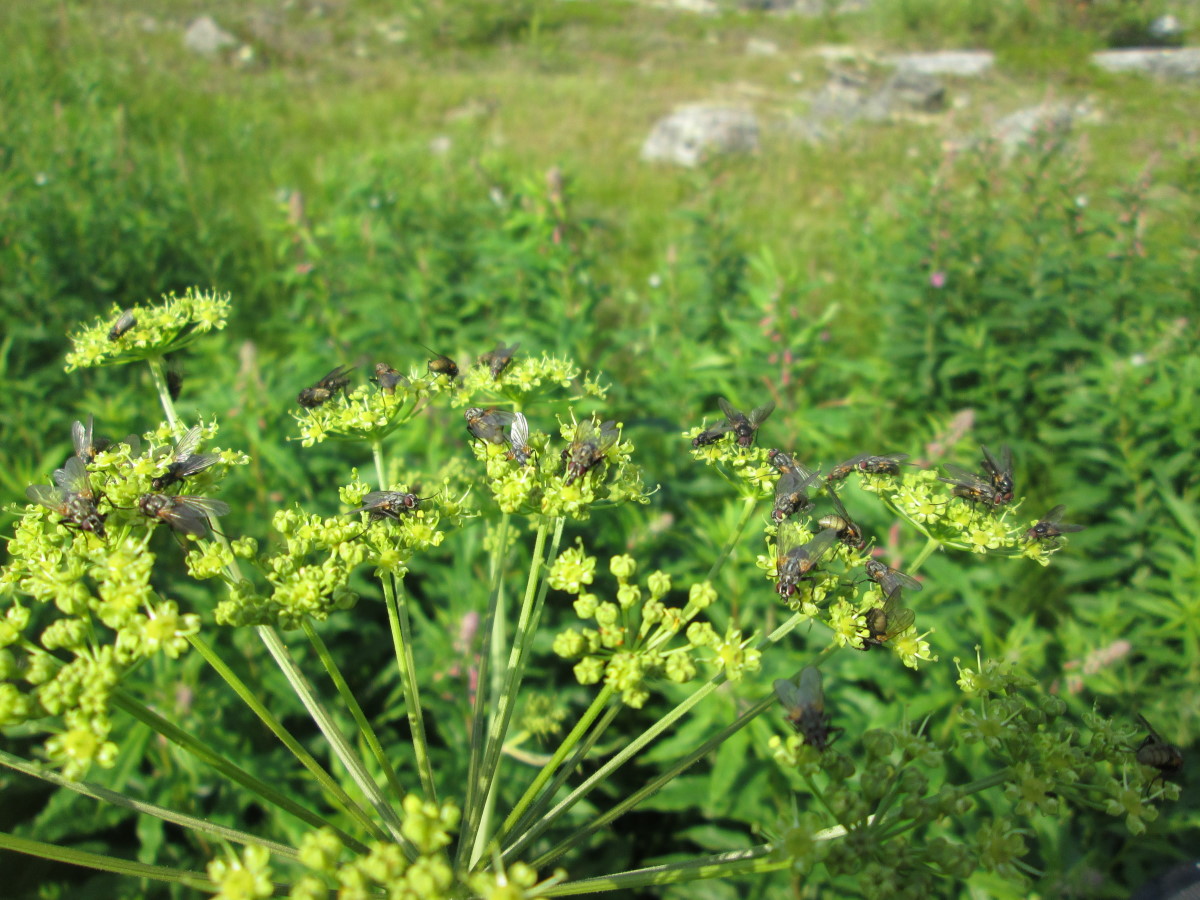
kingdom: Plantae
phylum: Tracheophyta
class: Magnoliopsida
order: Apiales
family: Apiaceae
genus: Ostericum
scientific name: Ostericum palustre
